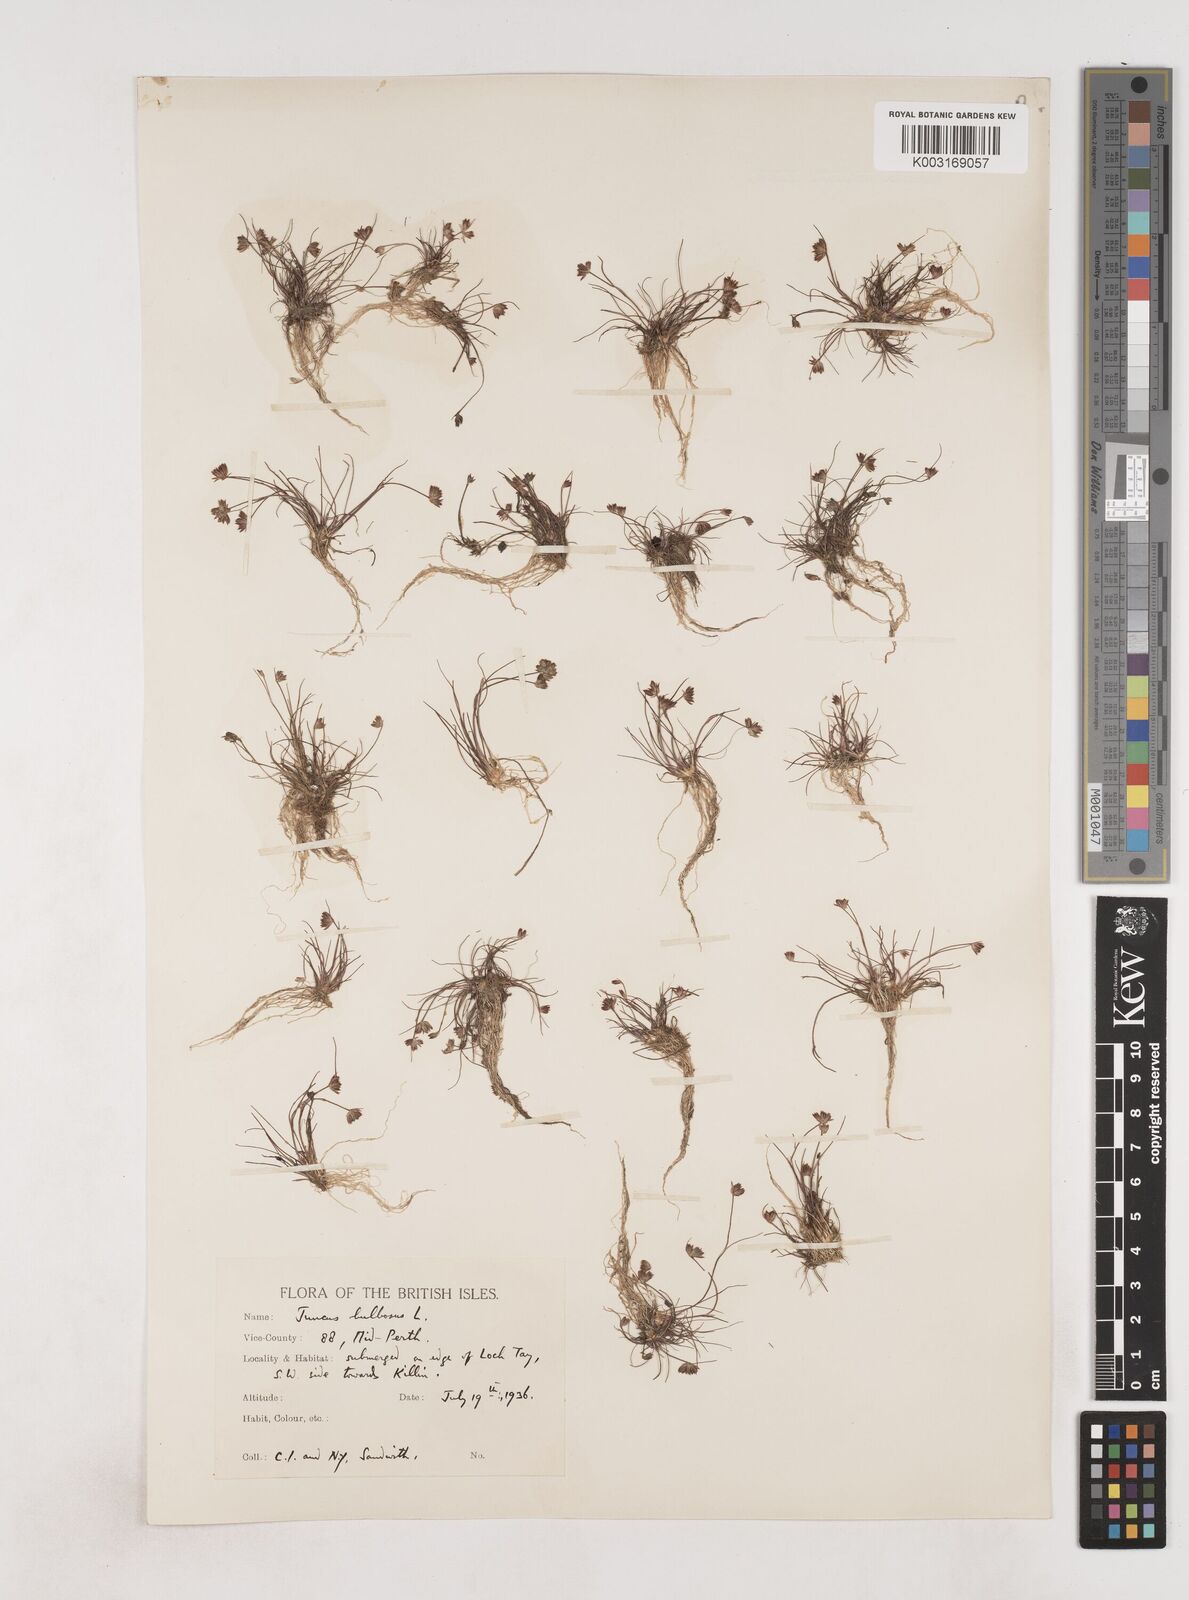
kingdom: Plantae
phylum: Tracheophyta
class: Liliopsida
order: Poales
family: Juncaceae
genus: Juncus
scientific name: Juncus bulbosus
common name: Bulbous rush
